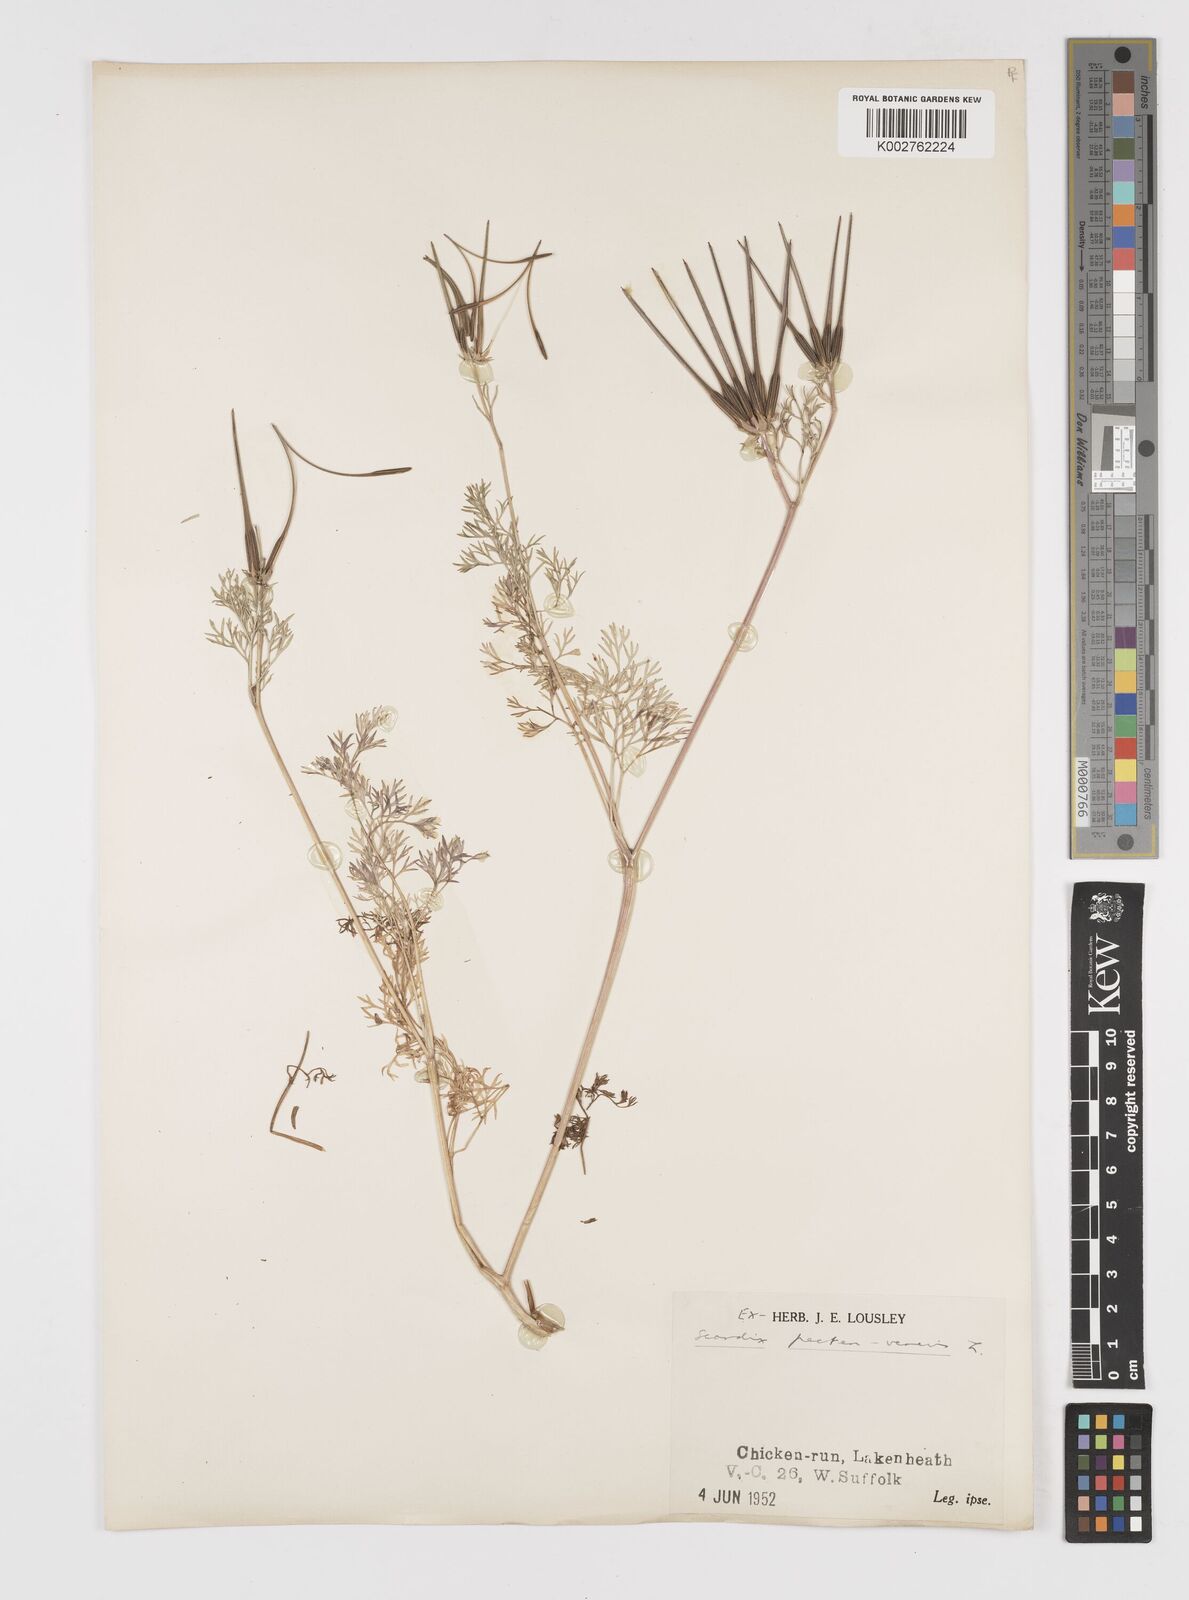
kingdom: Plantae
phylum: Tracheophyta
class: Magnoliopsida
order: Apiales
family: Apiaceae
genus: Scandix
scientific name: Scandix pecten-veneris
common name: Shepherd's-needle
